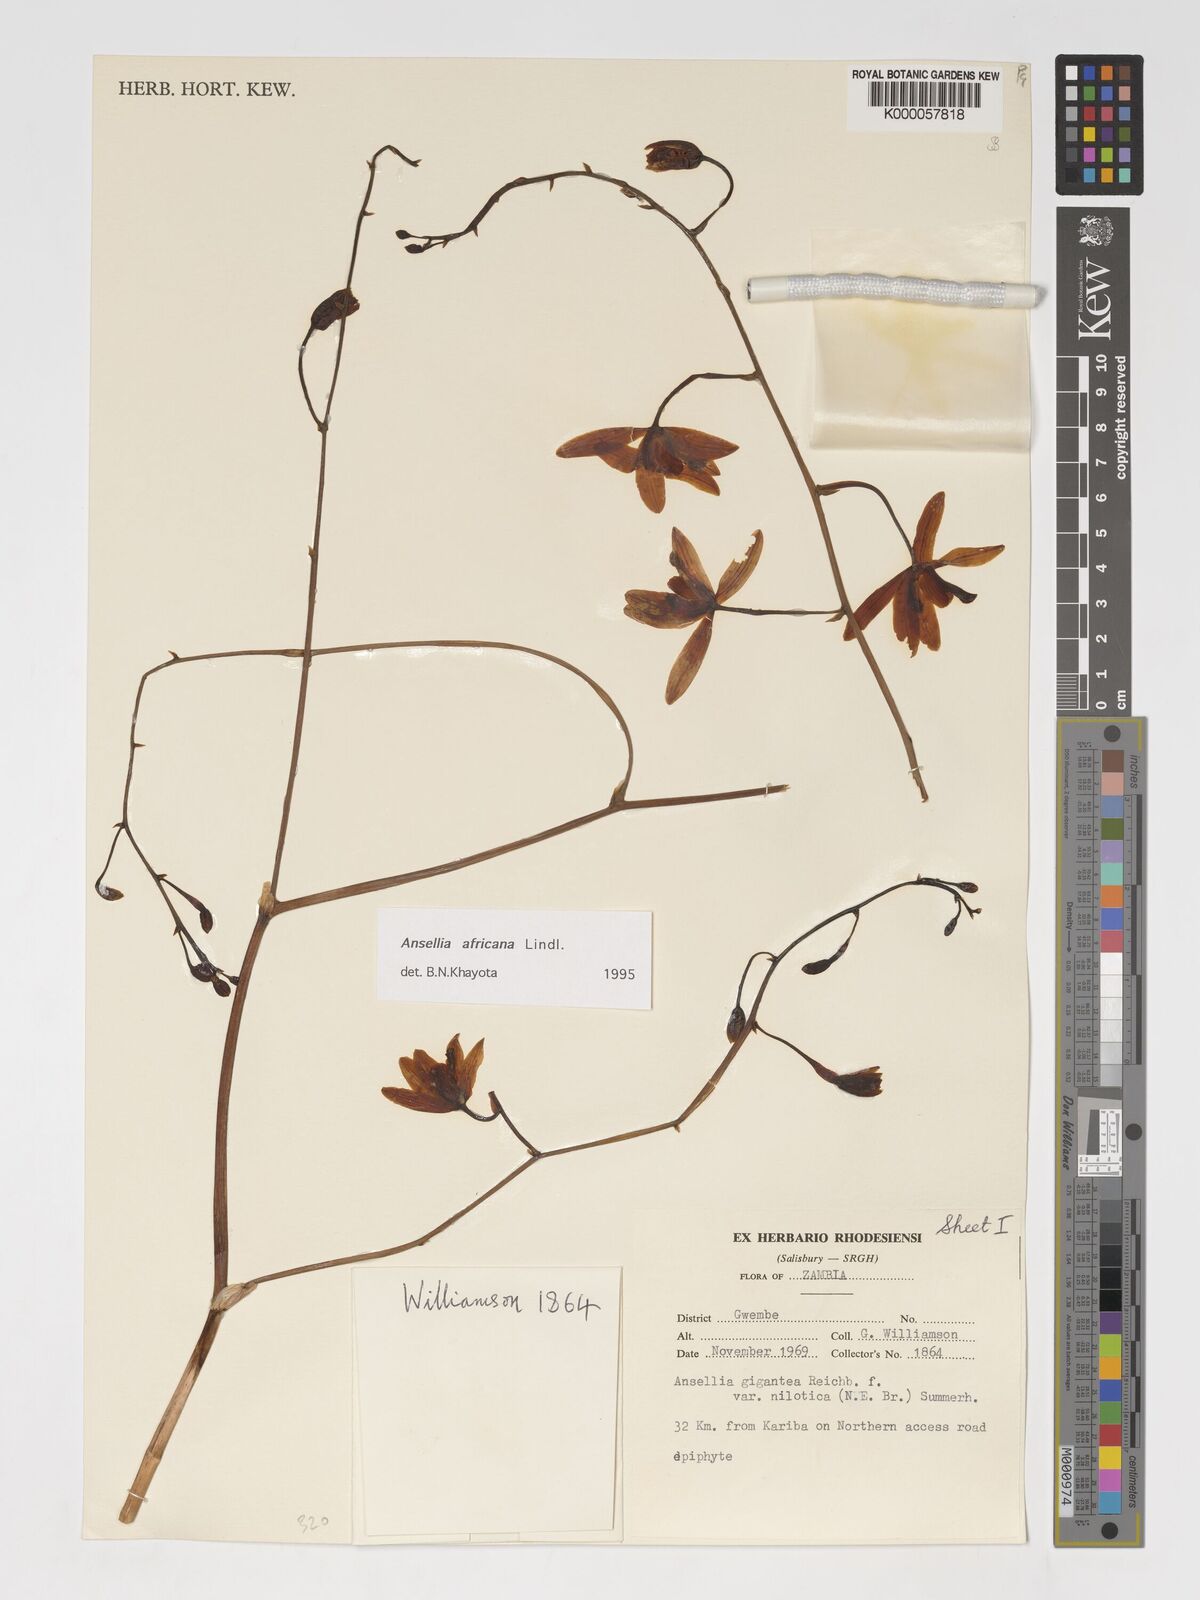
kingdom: Plantae
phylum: Tracheophyta
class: Liliopsida
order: Asparagales
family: Orchidaceae
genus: Ansellia
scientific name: Ansellia africana
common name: African ansellia
